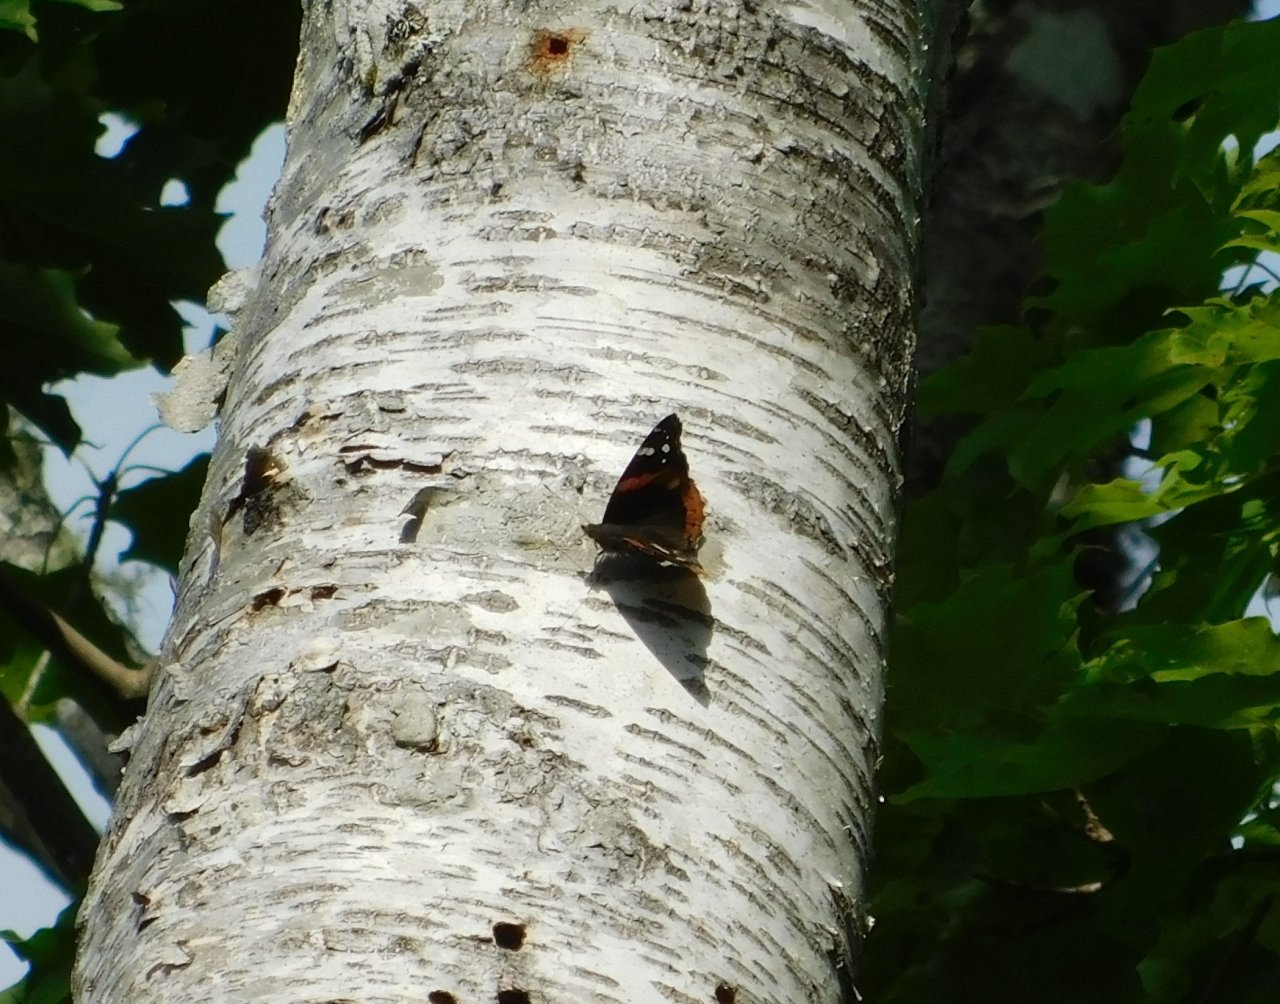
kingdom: Animalia
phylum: Arthropoda
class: Insecta
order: Lepidoptera
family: Nymphalidae
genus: Vanessa
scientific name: Vanessa atalanta
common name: Red Admiral
